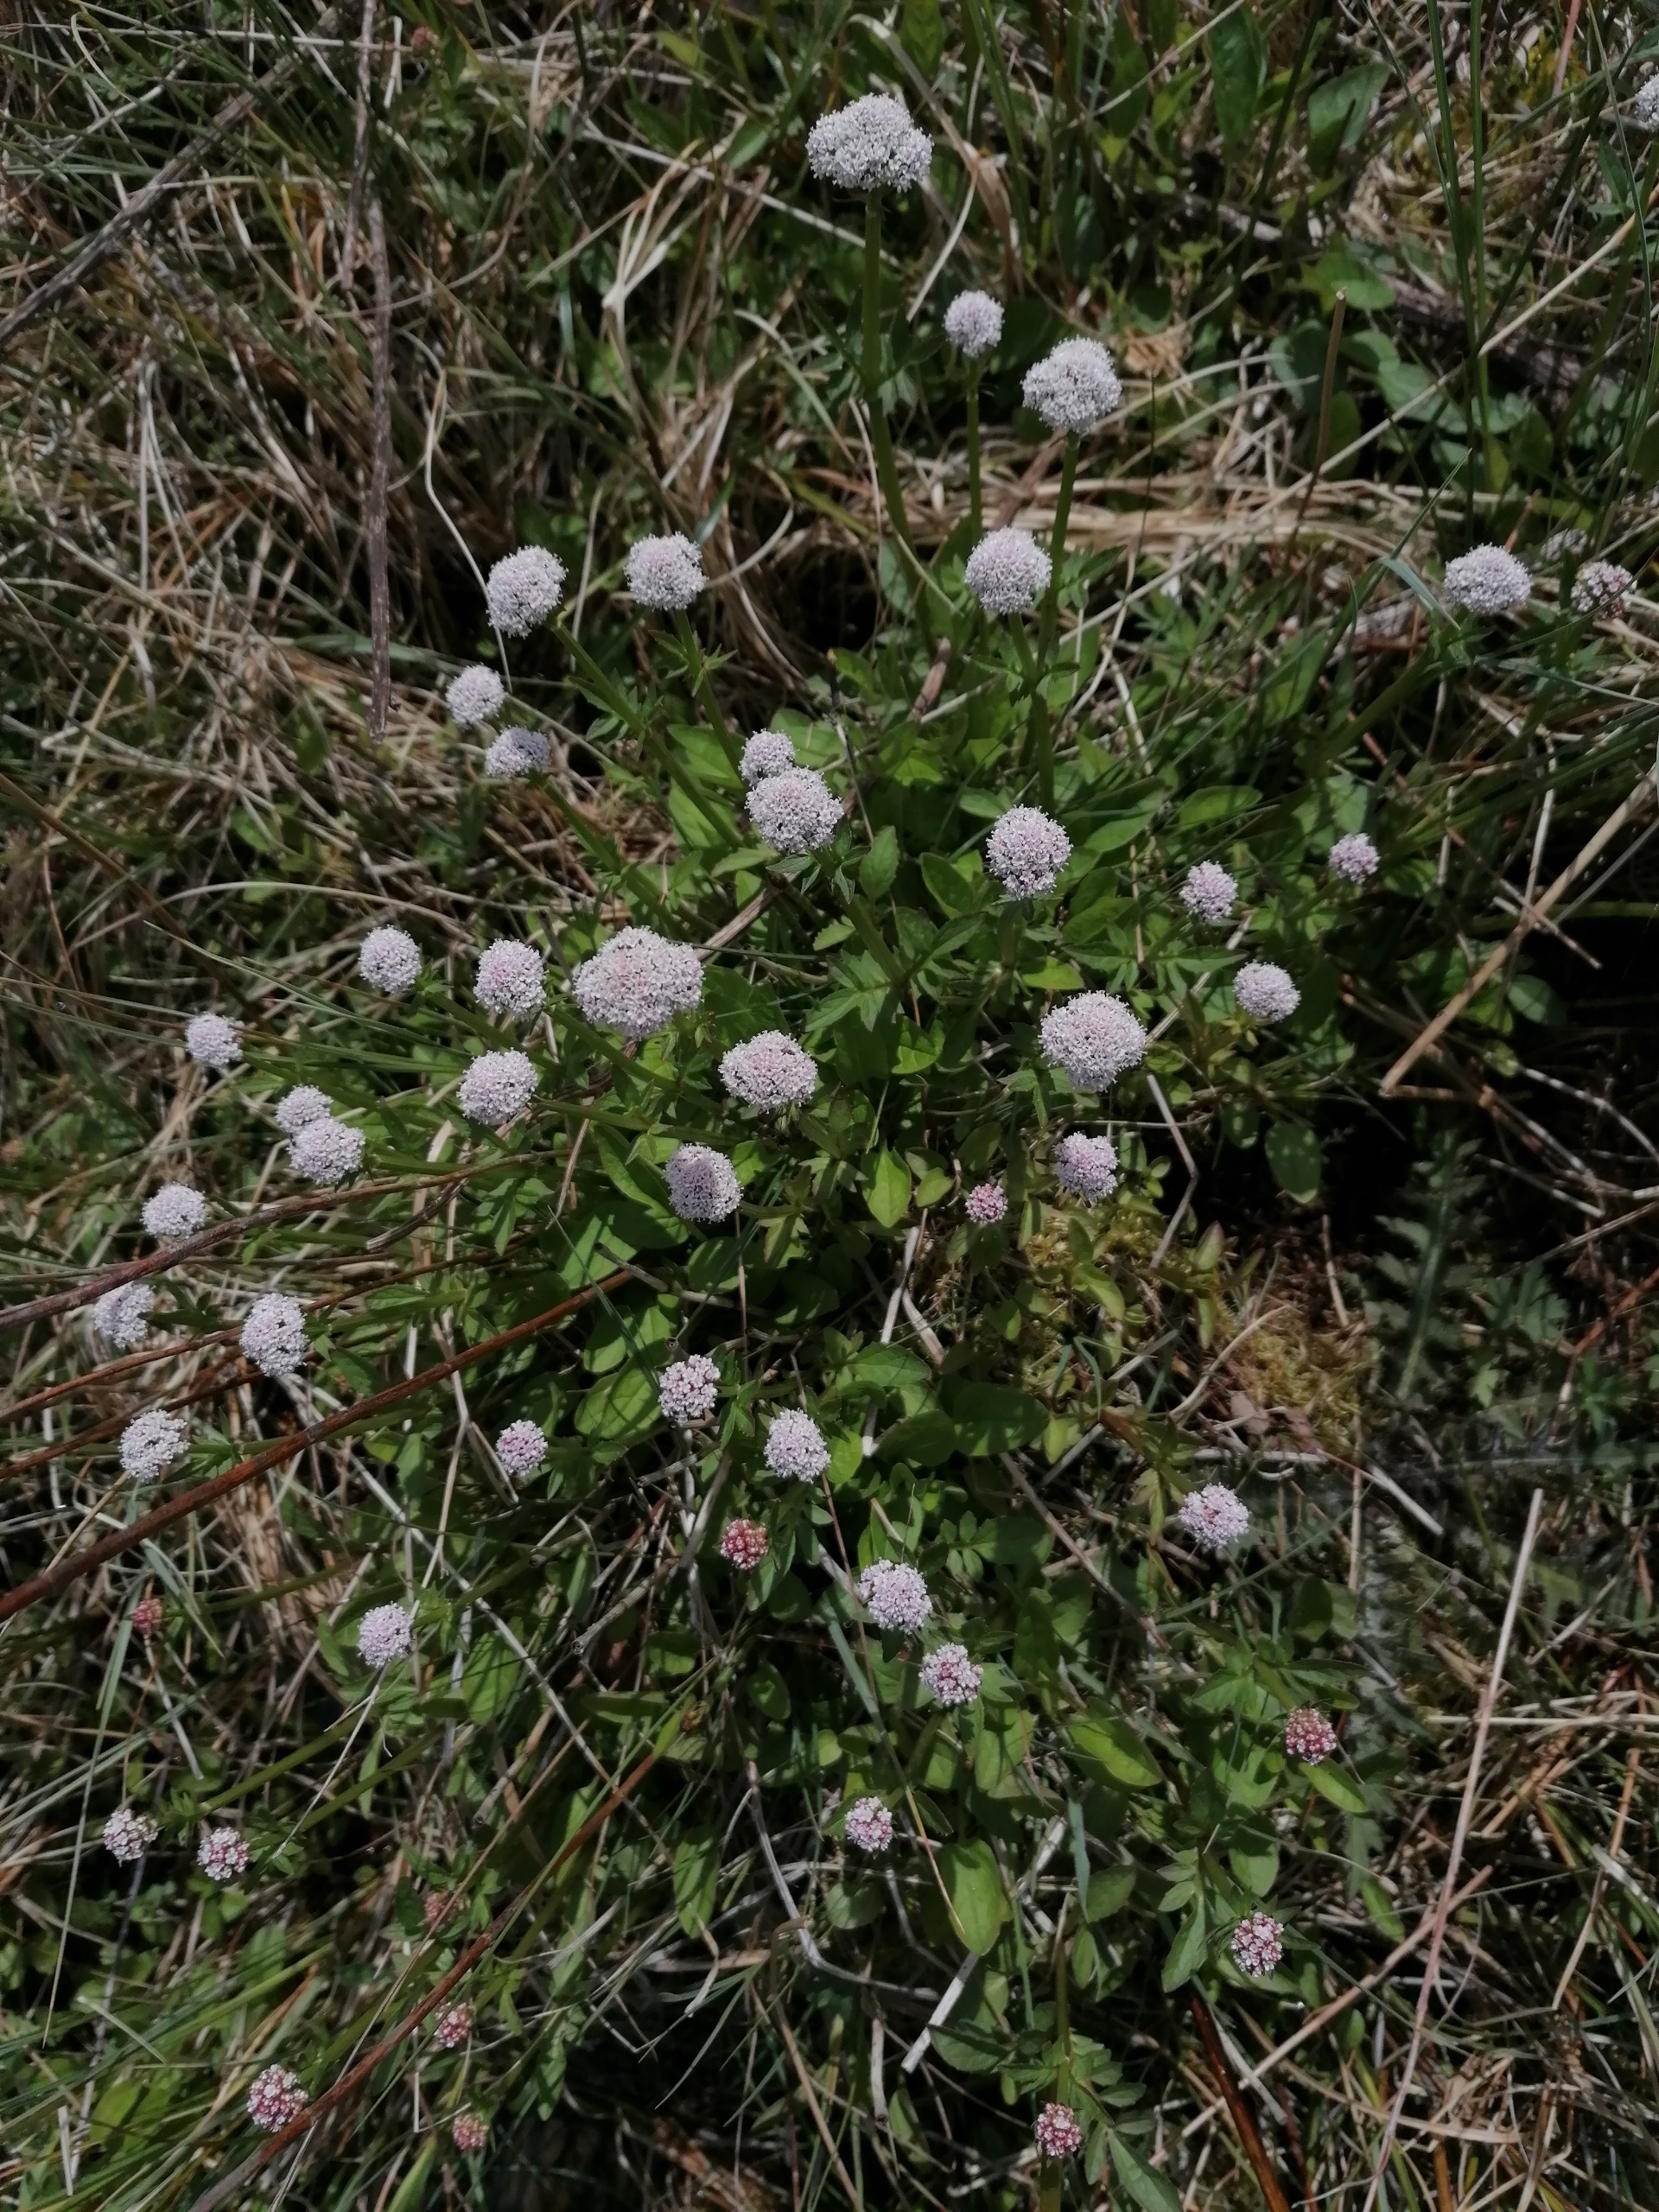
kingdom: Plantae
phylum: Tracheophyta
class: Magnoliopsida
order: Dipsacales
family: Caprifoliaceae
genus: Valeriana
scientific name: Valeriana dioica
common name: Tvebo baldrian
